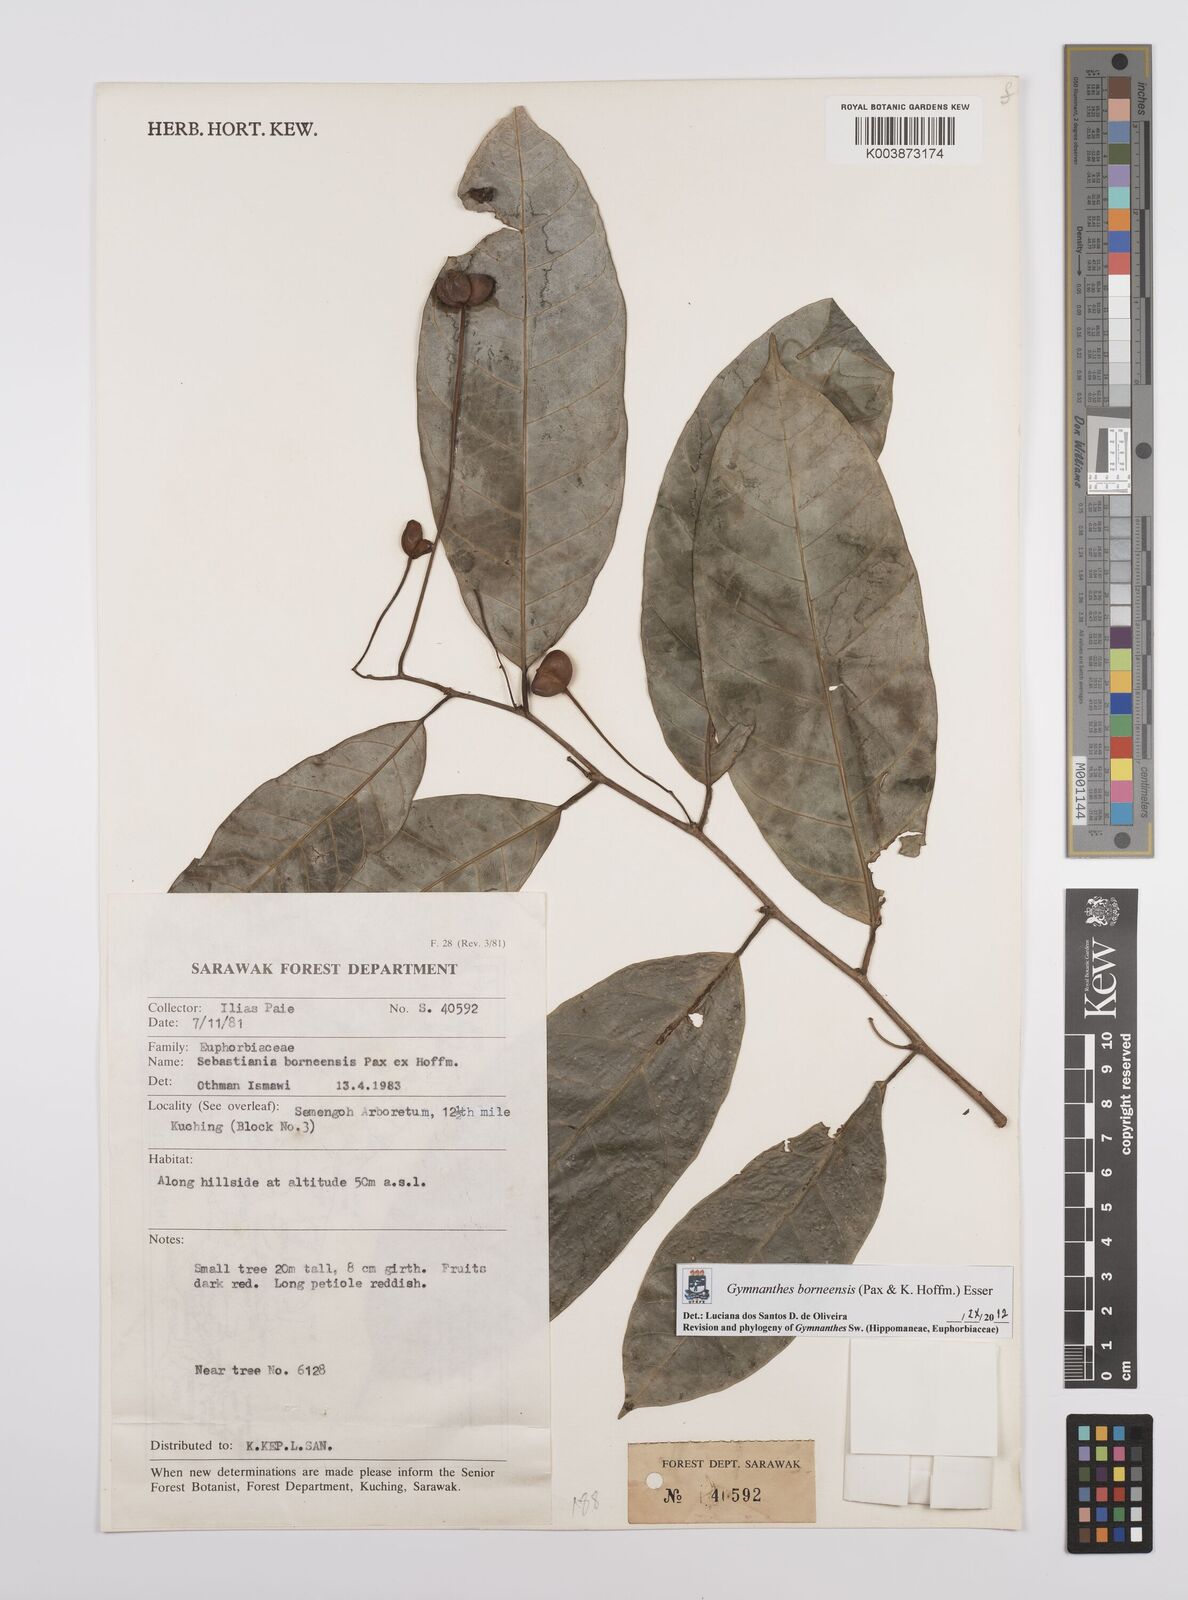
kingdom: Plantae
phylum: Tracheophyta
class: Magnoliopsida
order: Malpighiales
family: Euphorbiaceae
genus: Gymnanthes
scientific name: Gymnanthes borneensis
